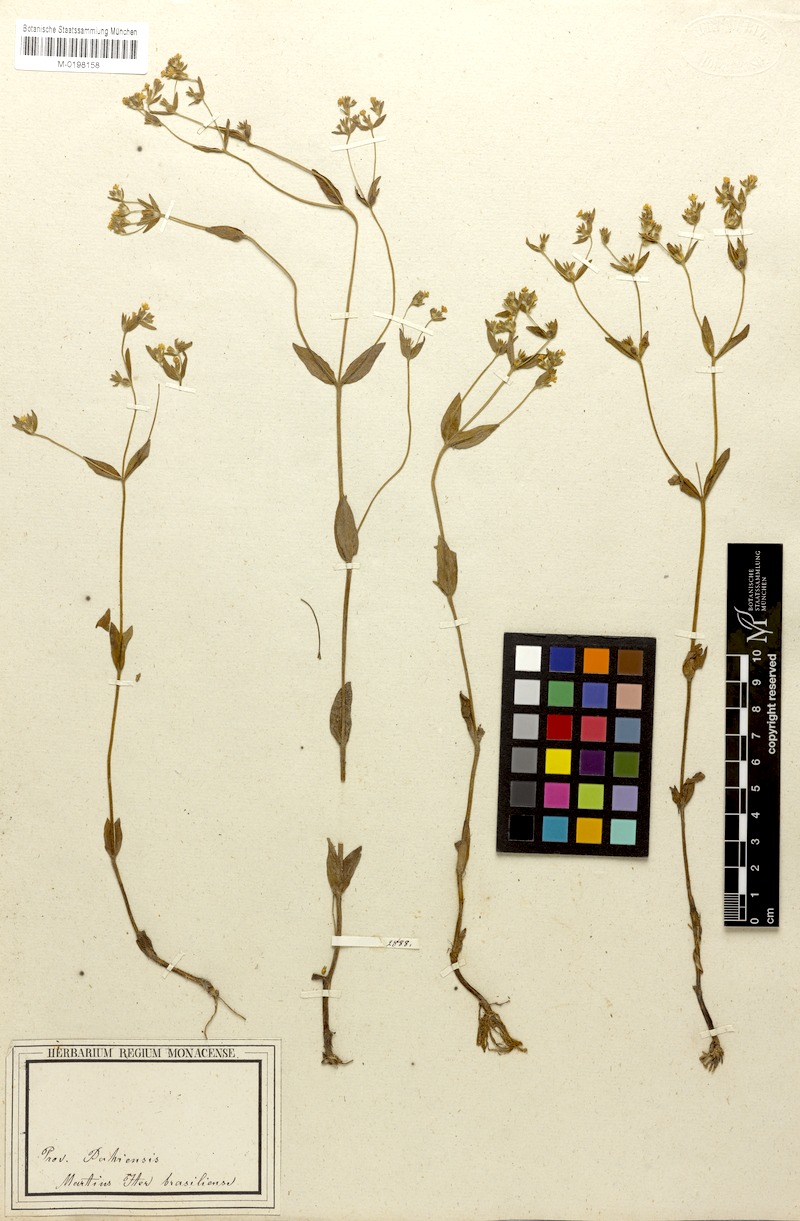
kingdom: Plantae
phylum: Tracheophyta
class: Magnoliopsida
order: Gentianales
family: Rubiaceae
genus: Limnosipanea
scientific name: Limnosipanea palustris
